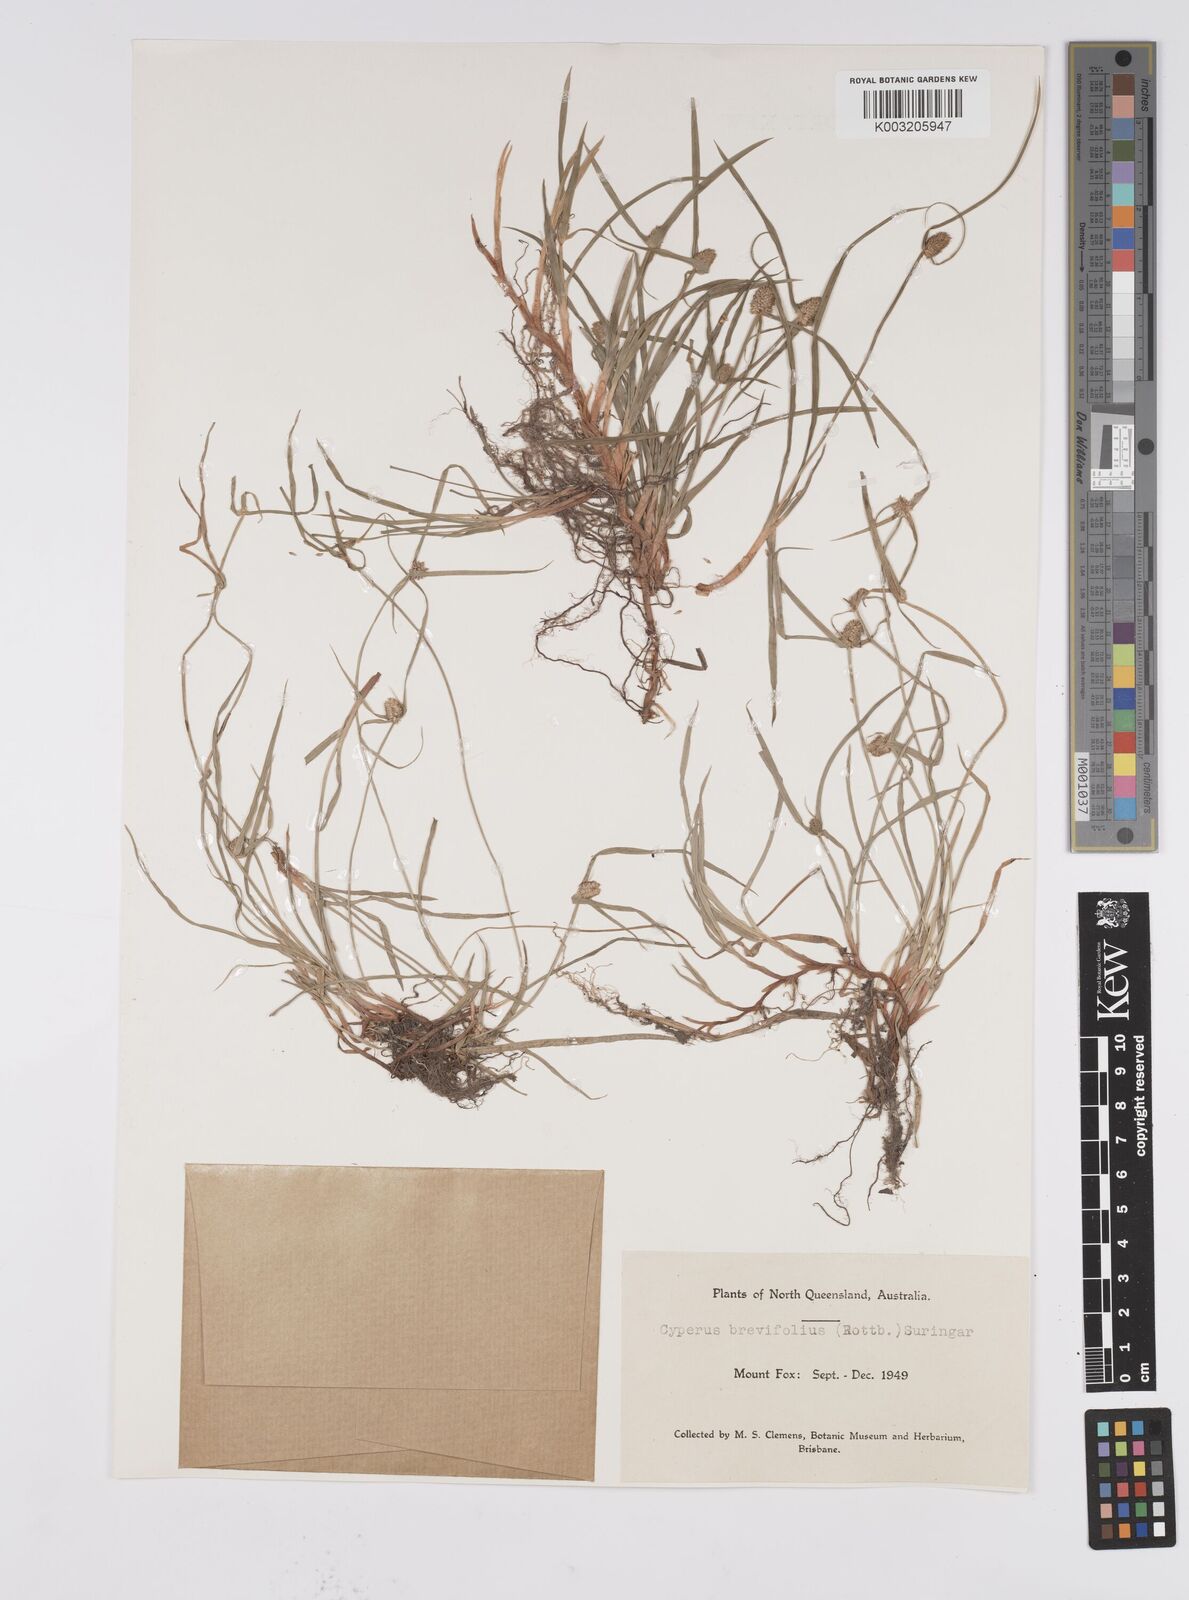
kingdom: Plantae
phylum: Tracheophyta
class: Liliopsida
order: Poales
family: Cyperaceae
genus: Cyperus
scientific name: Cyperus brevifolius
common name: Globe kyllinga
